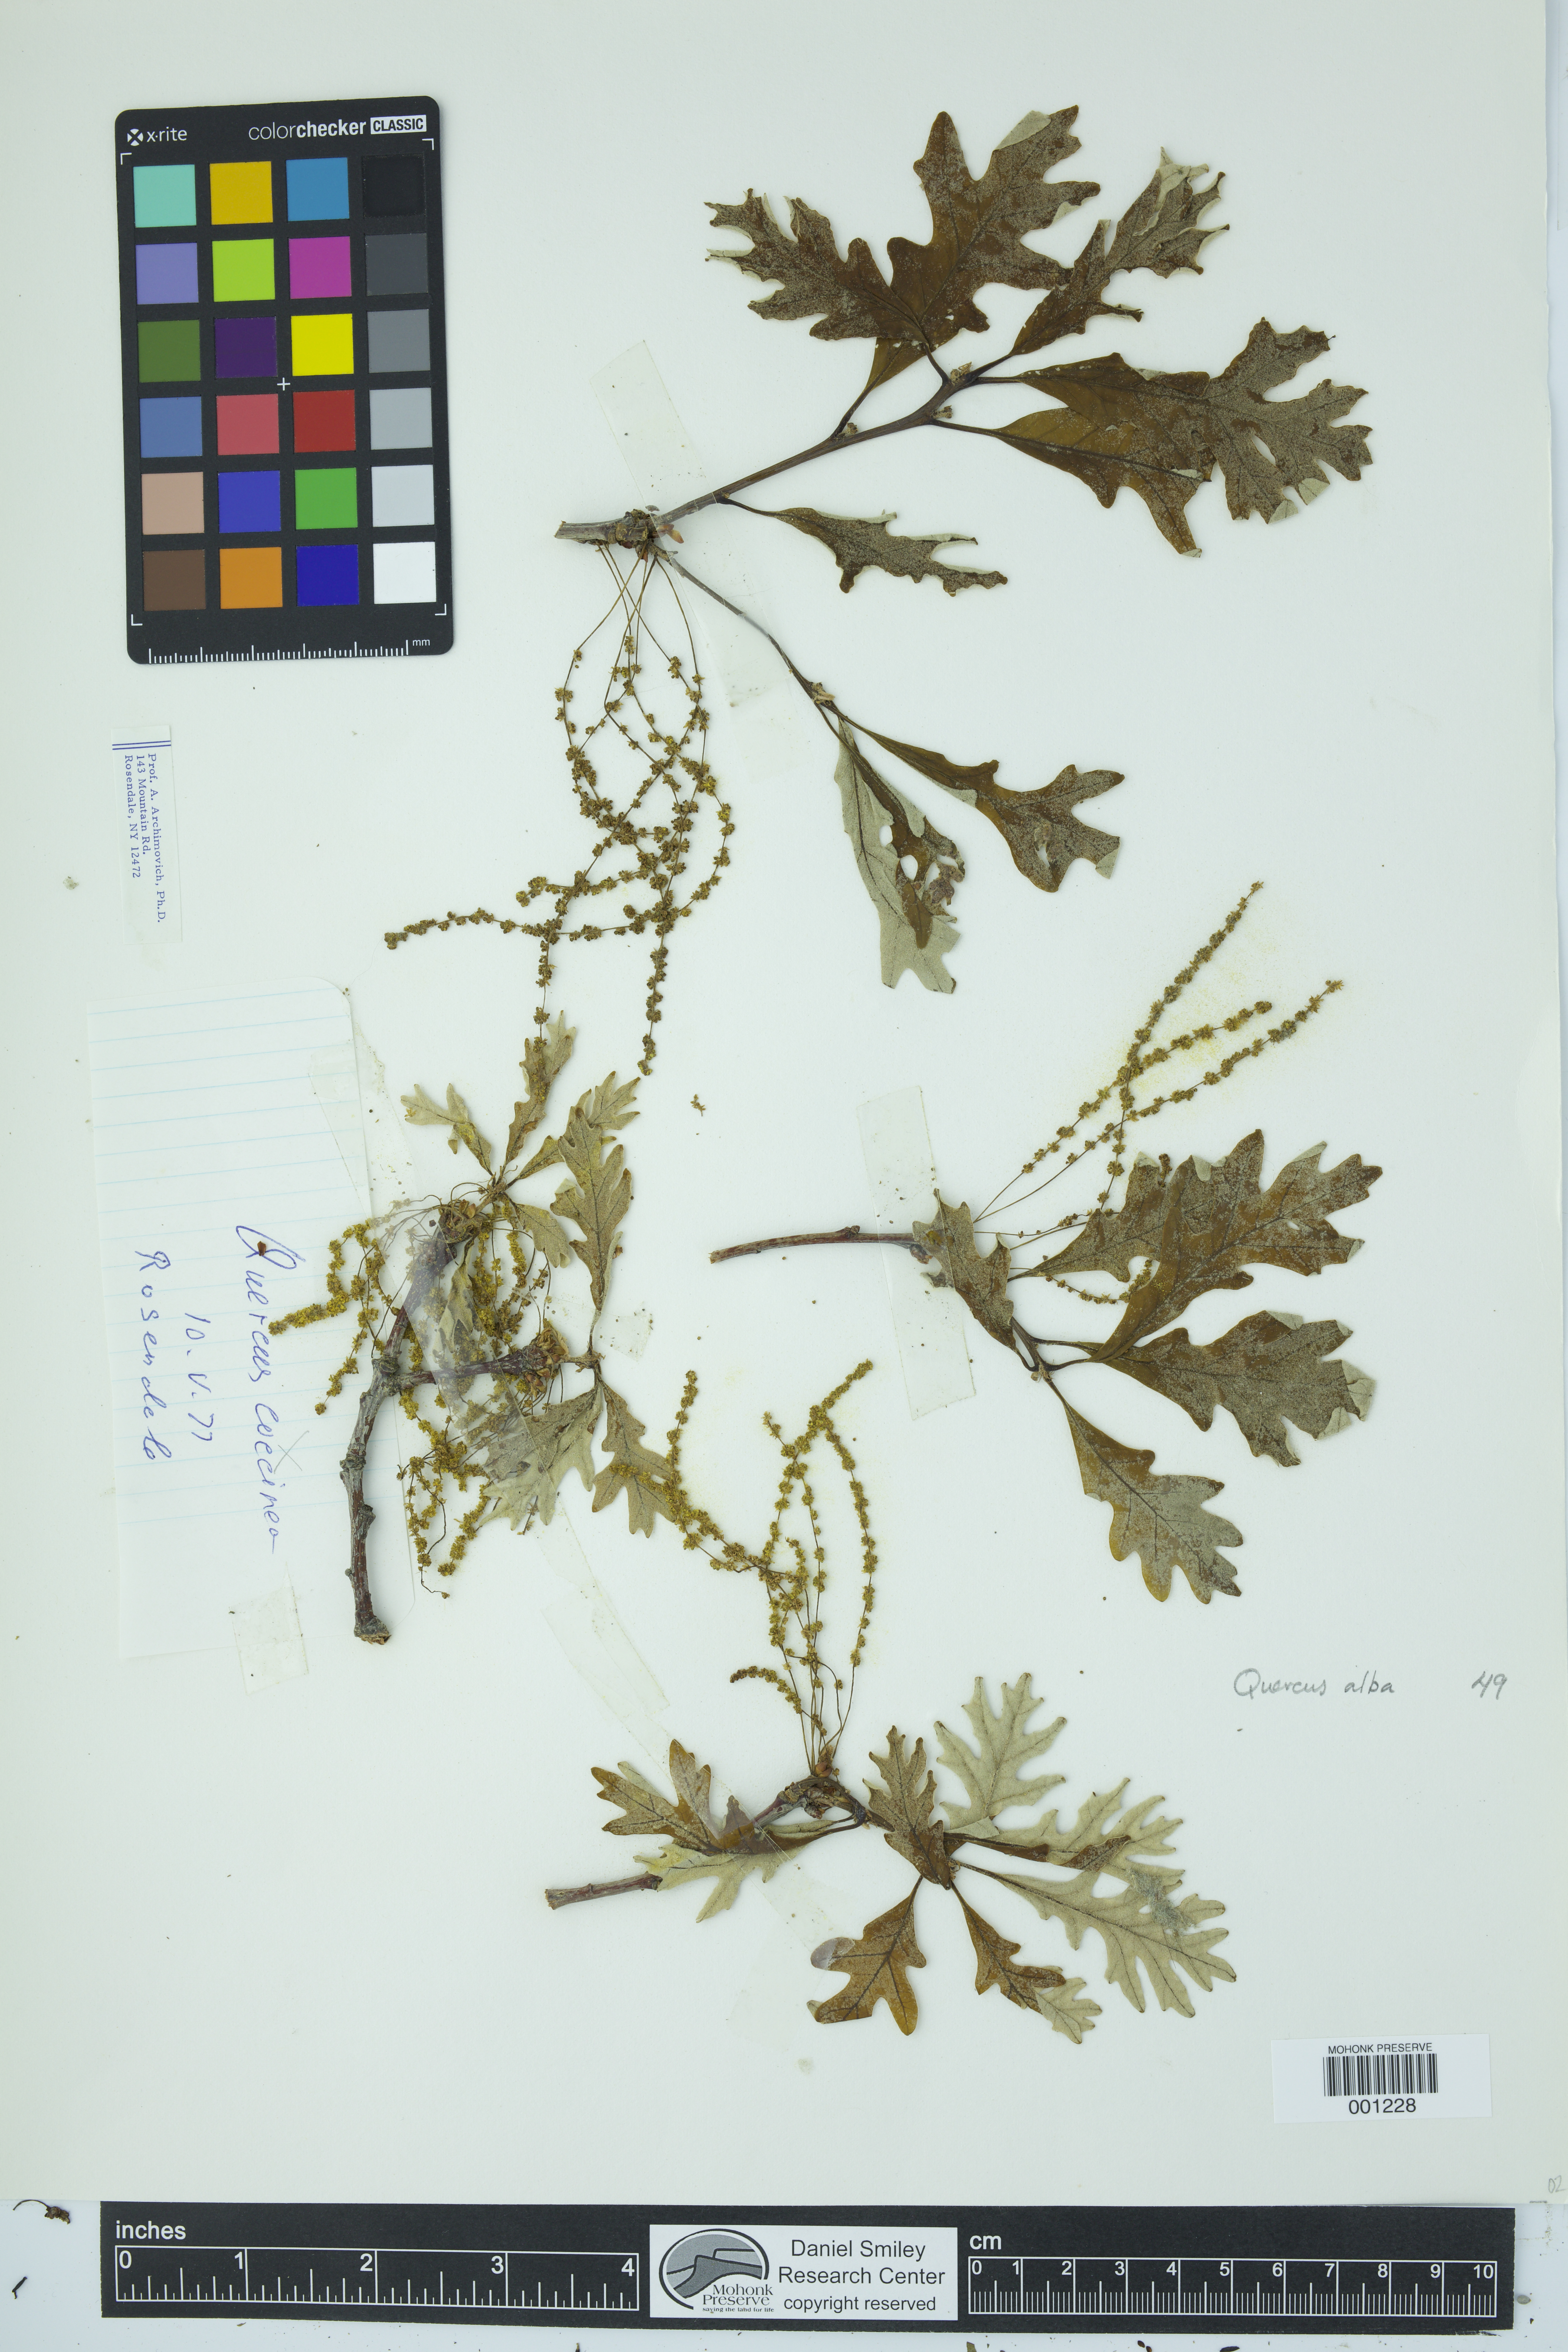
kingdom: Plantae
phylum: Tracheophyta
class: Magnoliopsida
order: Fagales
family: Fagaceae
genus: Quercus
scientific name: Quercus alba
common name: White oak
